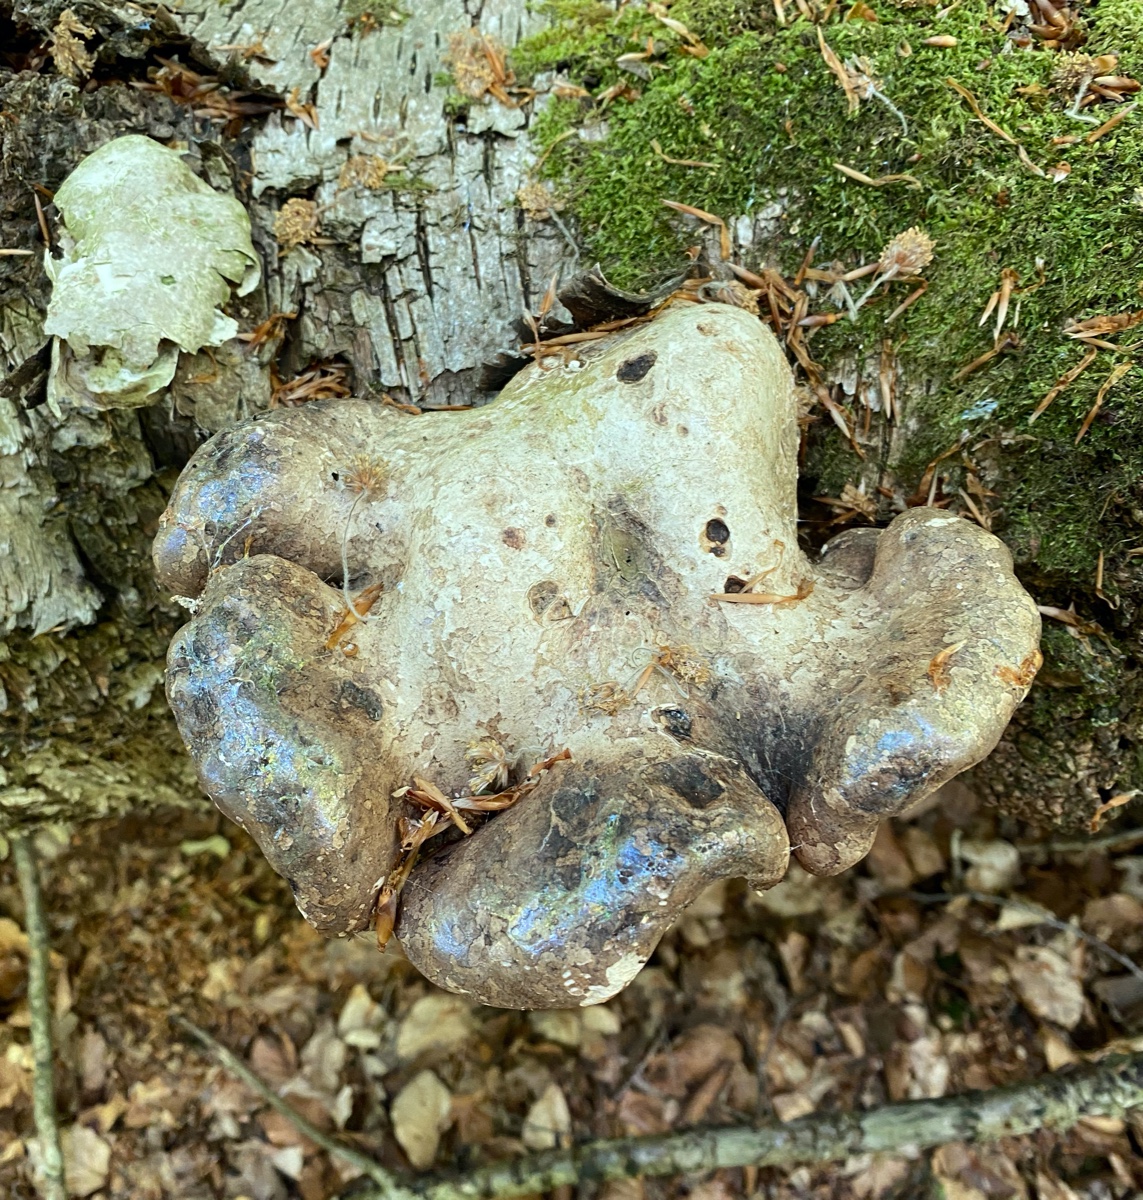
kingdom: Fungi
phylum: Basidiomycota
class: Agaricomycetes
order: Polyporales
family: Fomitopsidaceae
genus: Fomitopsis
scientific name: Fomitopsis betulina
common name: birkeporesvamp
